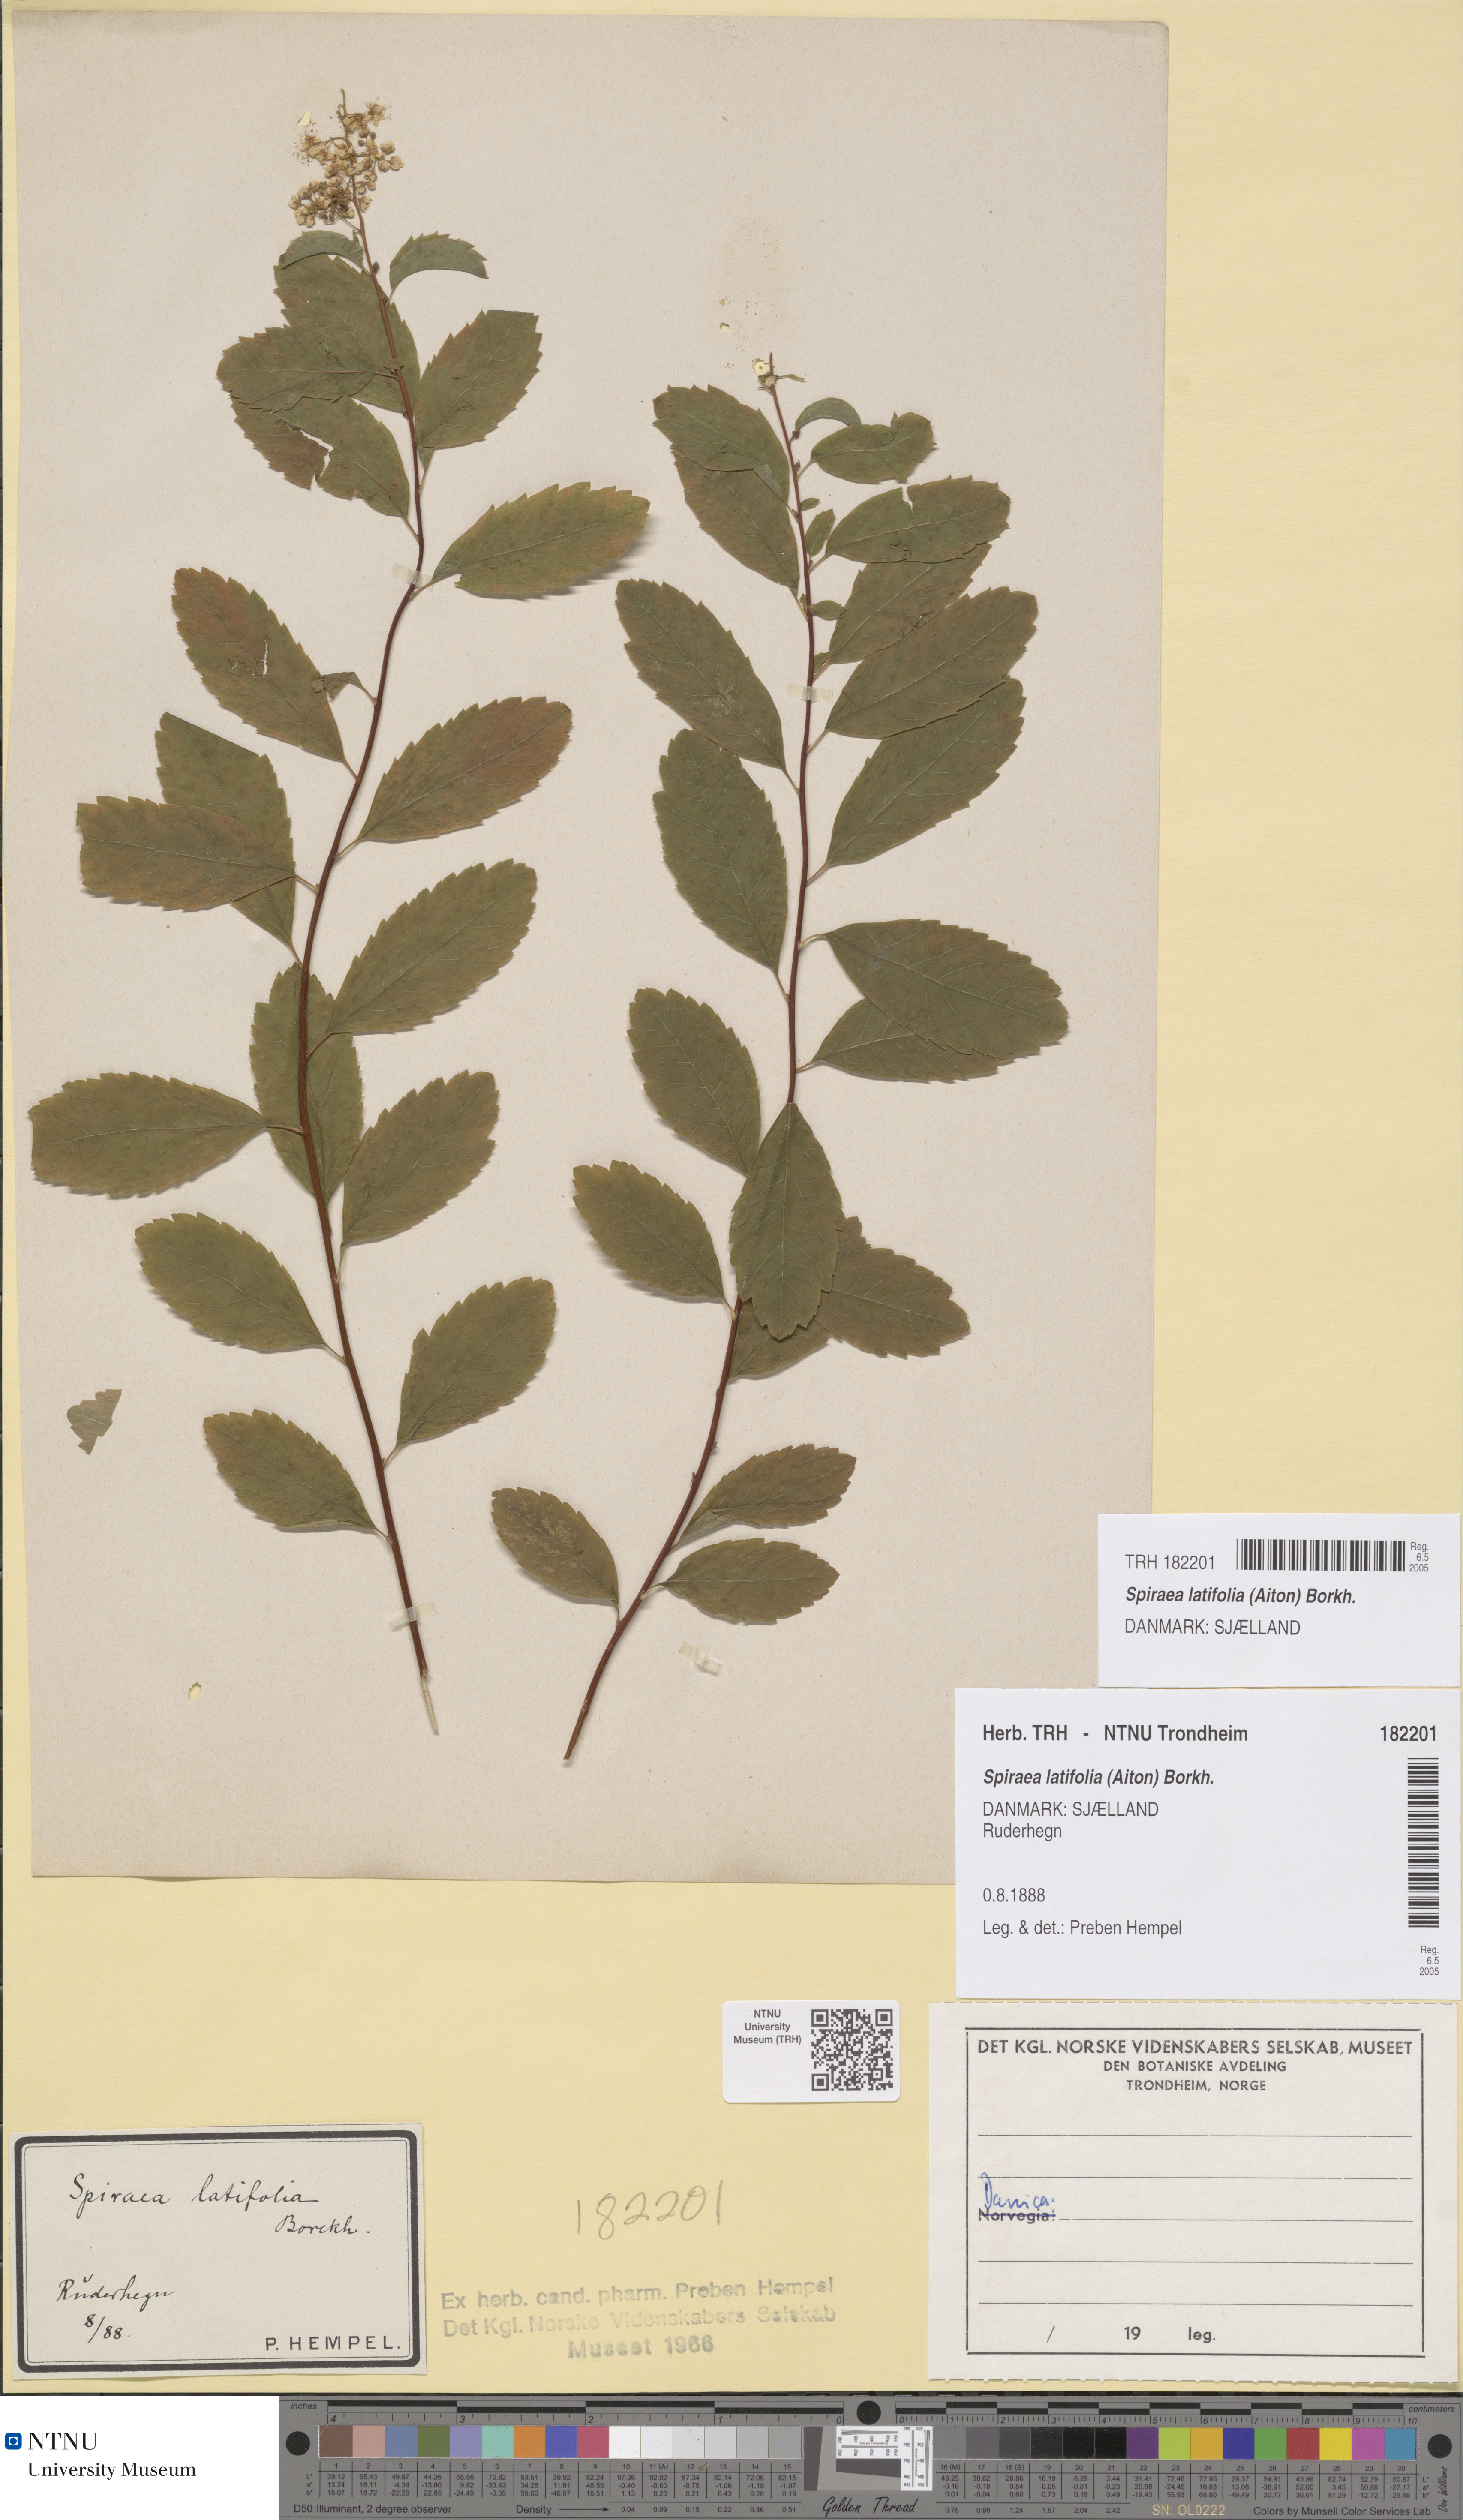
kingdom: Plantae
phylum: Tracheophyta
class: Magnoliopsida
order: Rosales
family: Rosaceae
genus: Spiraea
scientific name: Spiraea alba
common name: Pale bridewort
